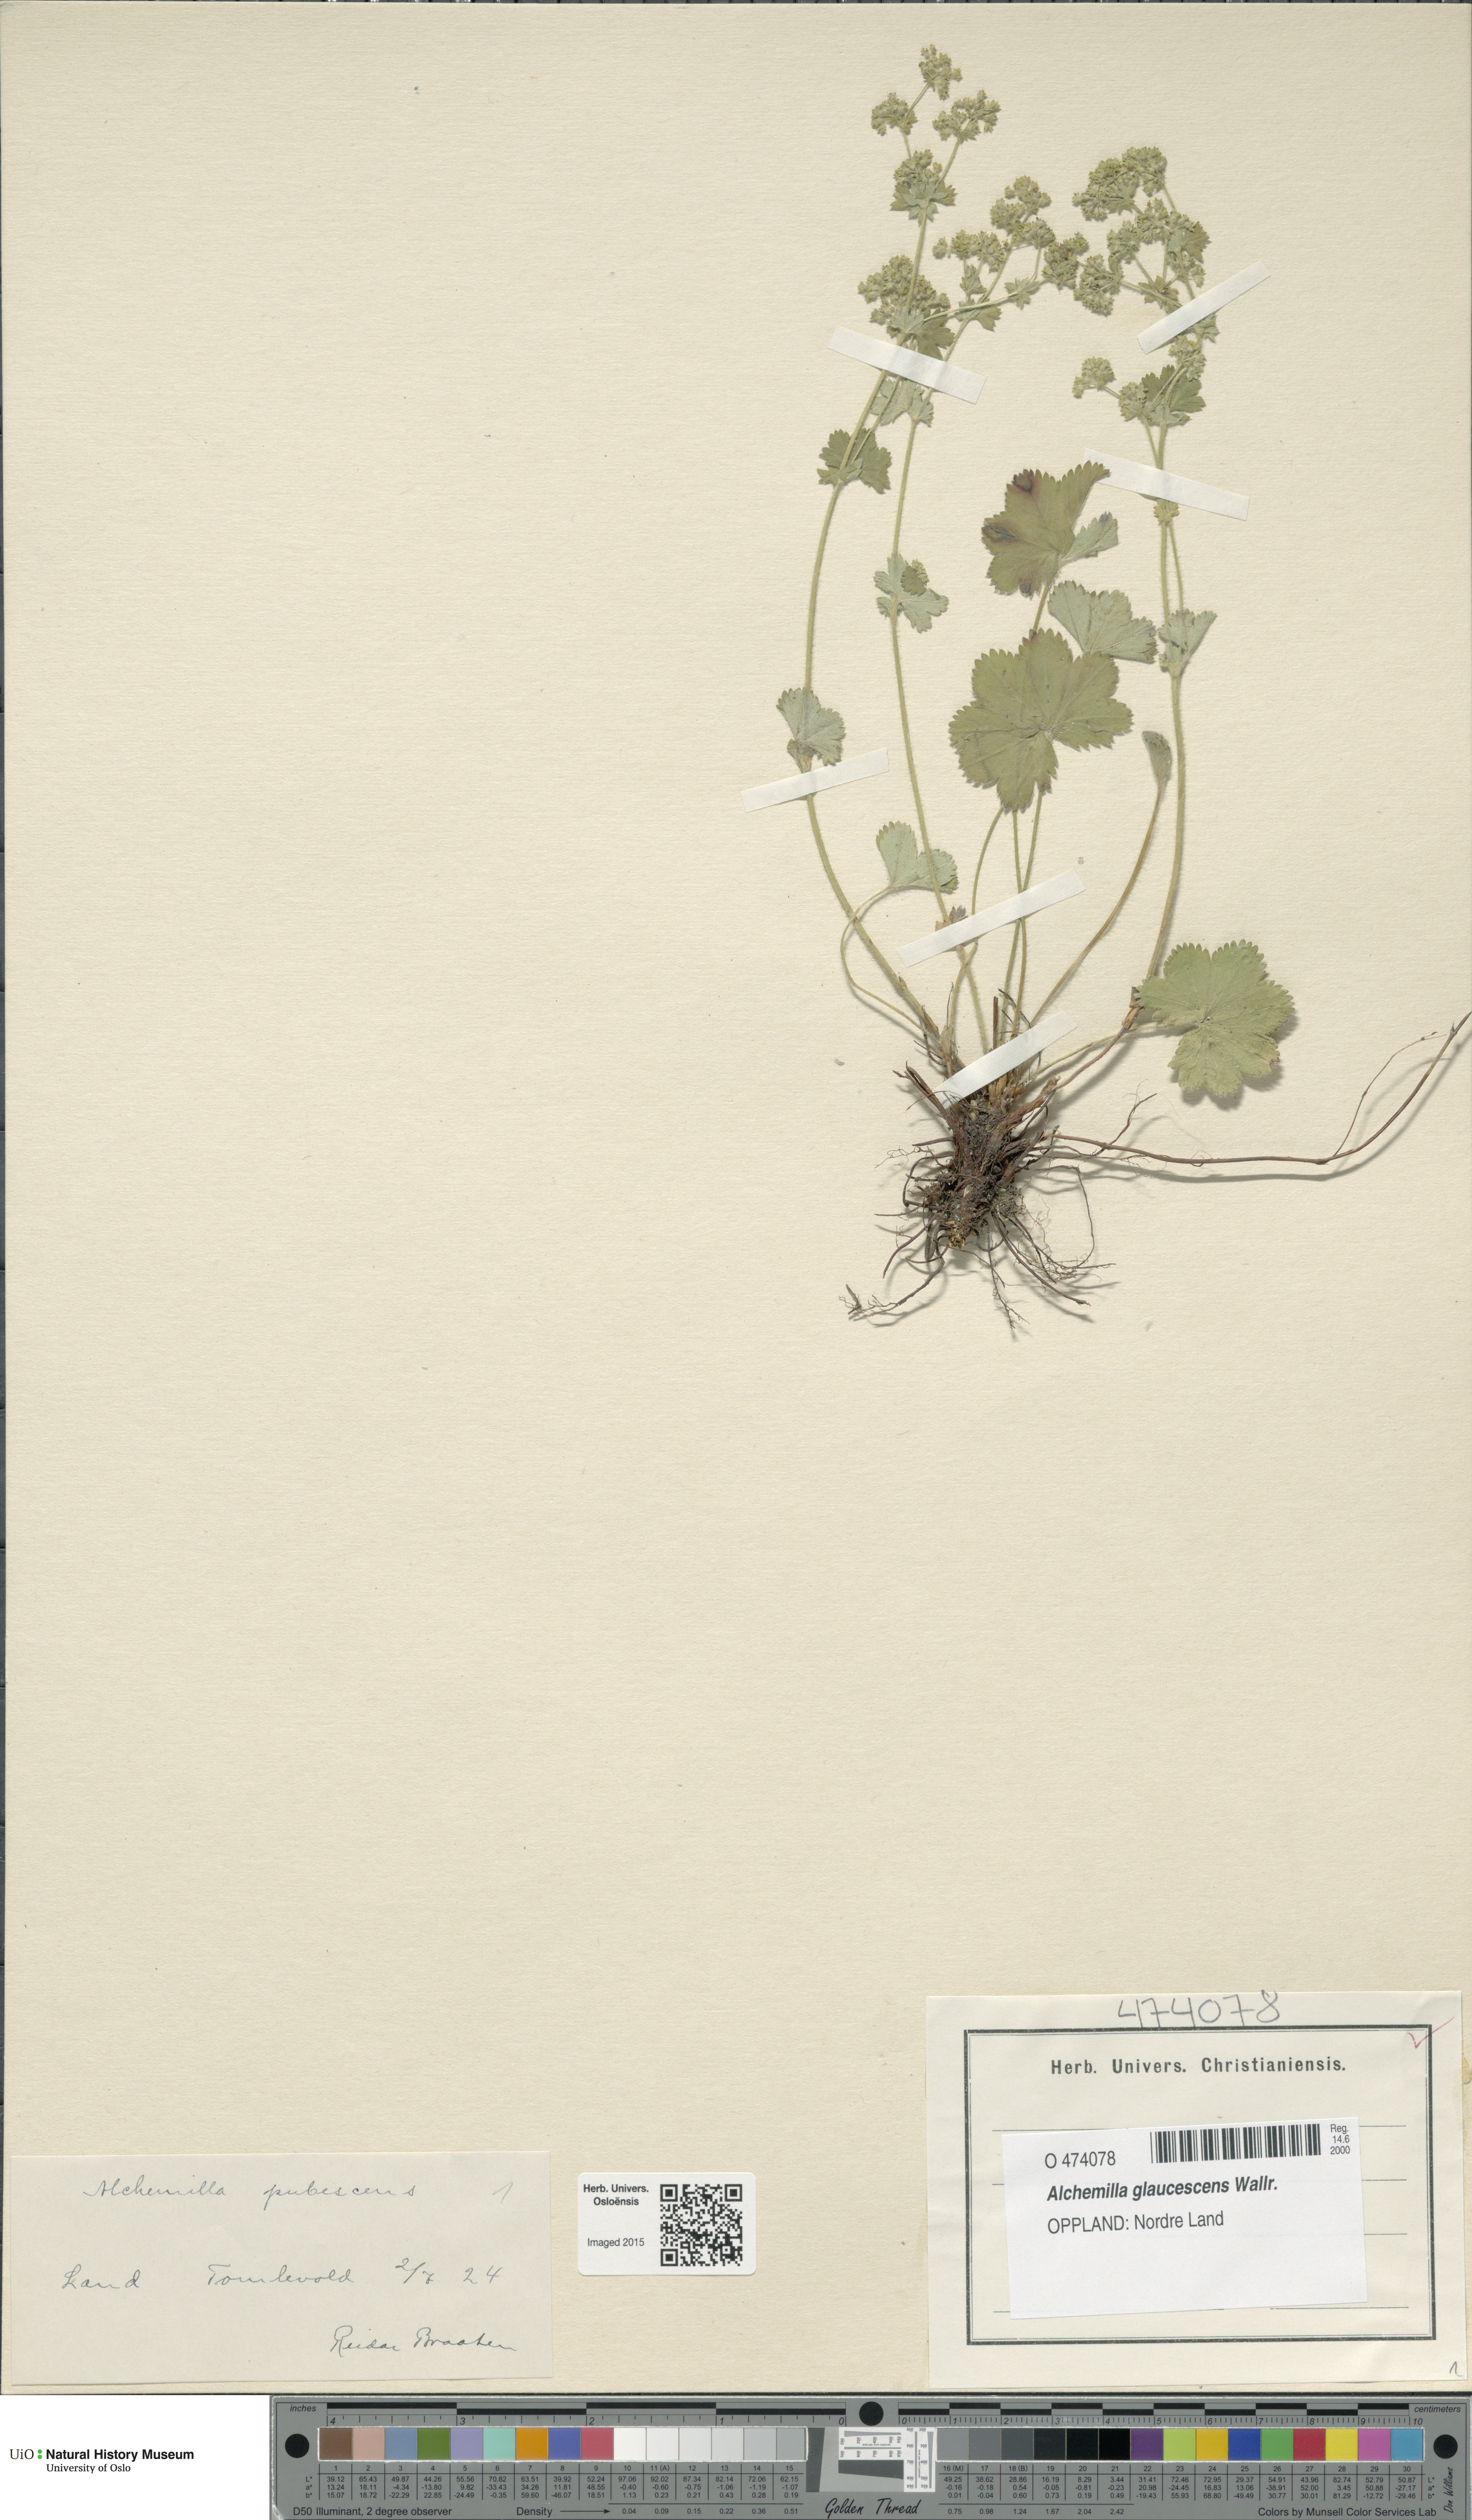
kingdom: Plantae
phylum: Tracheophyta
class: Magnoliopsida
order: Rosales
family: Rosaceae
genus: Alchemilla
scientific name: Alchemilla glaucescens
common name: Silky lady's mantle
